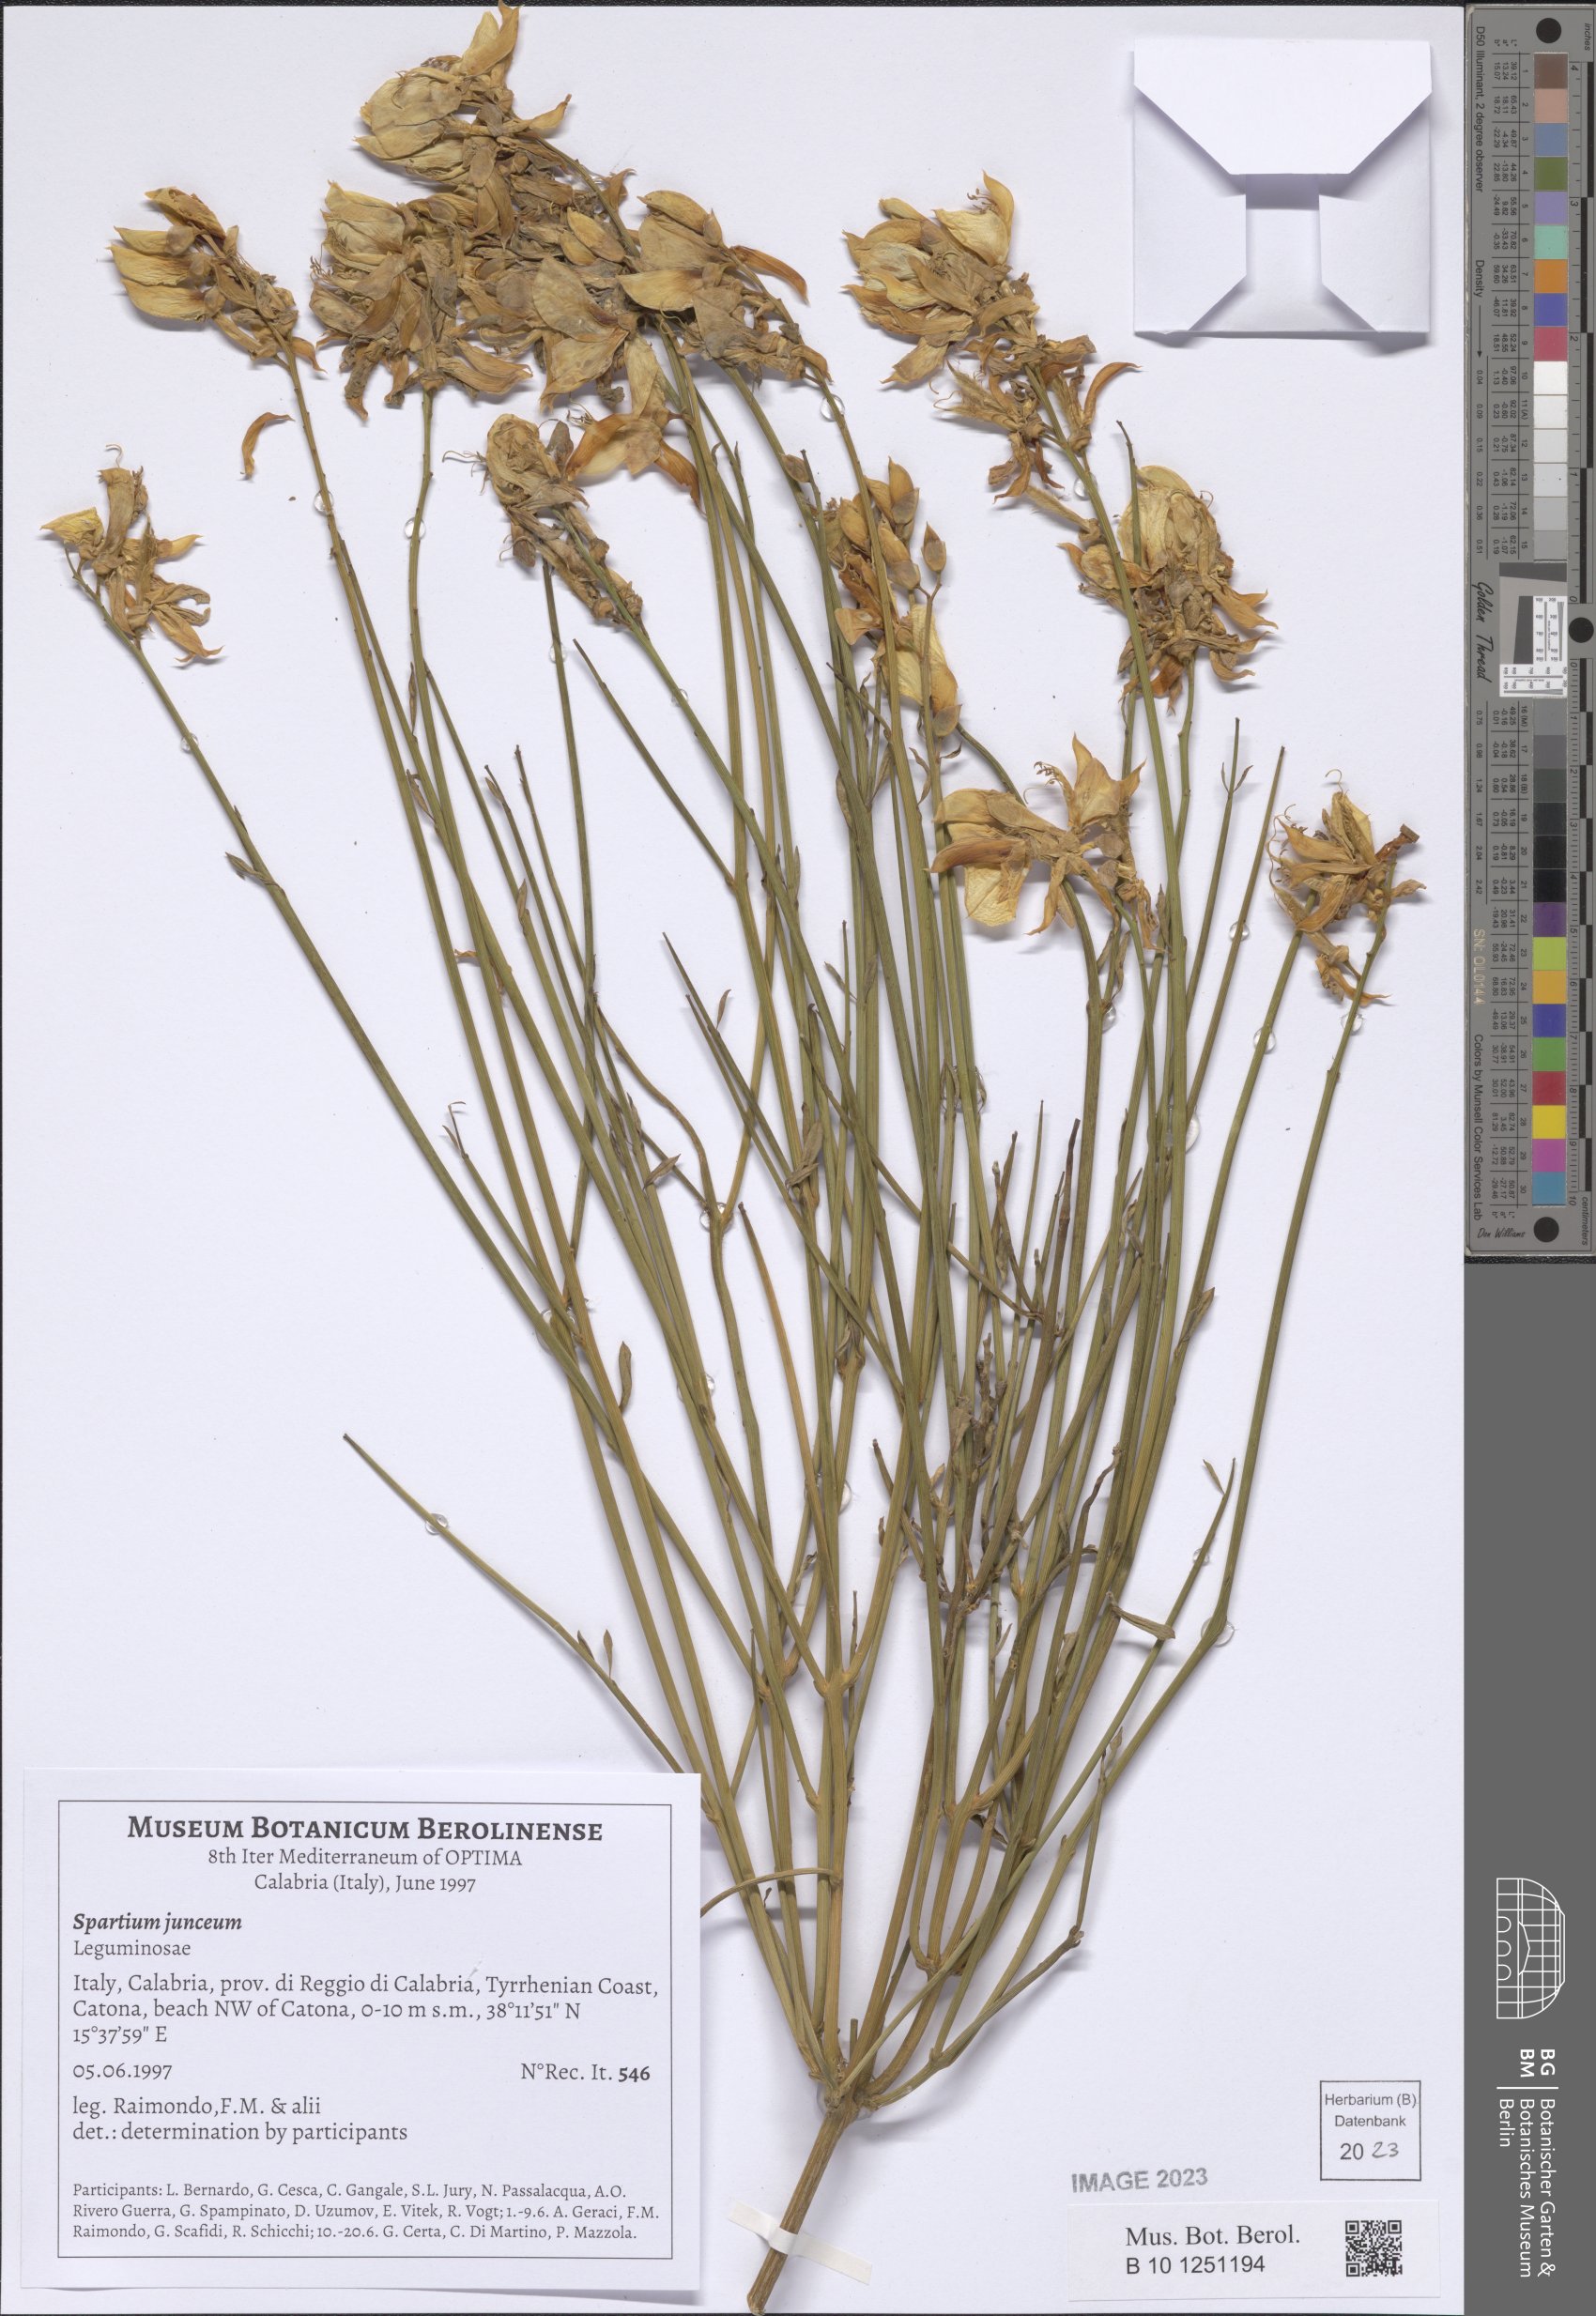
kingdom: Plantae
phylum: Tracheophyta
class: Magnoliopsida
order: Fabales
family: Fabaceae
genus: Spartium
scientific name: Spartium junceum
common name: Spanish broom
